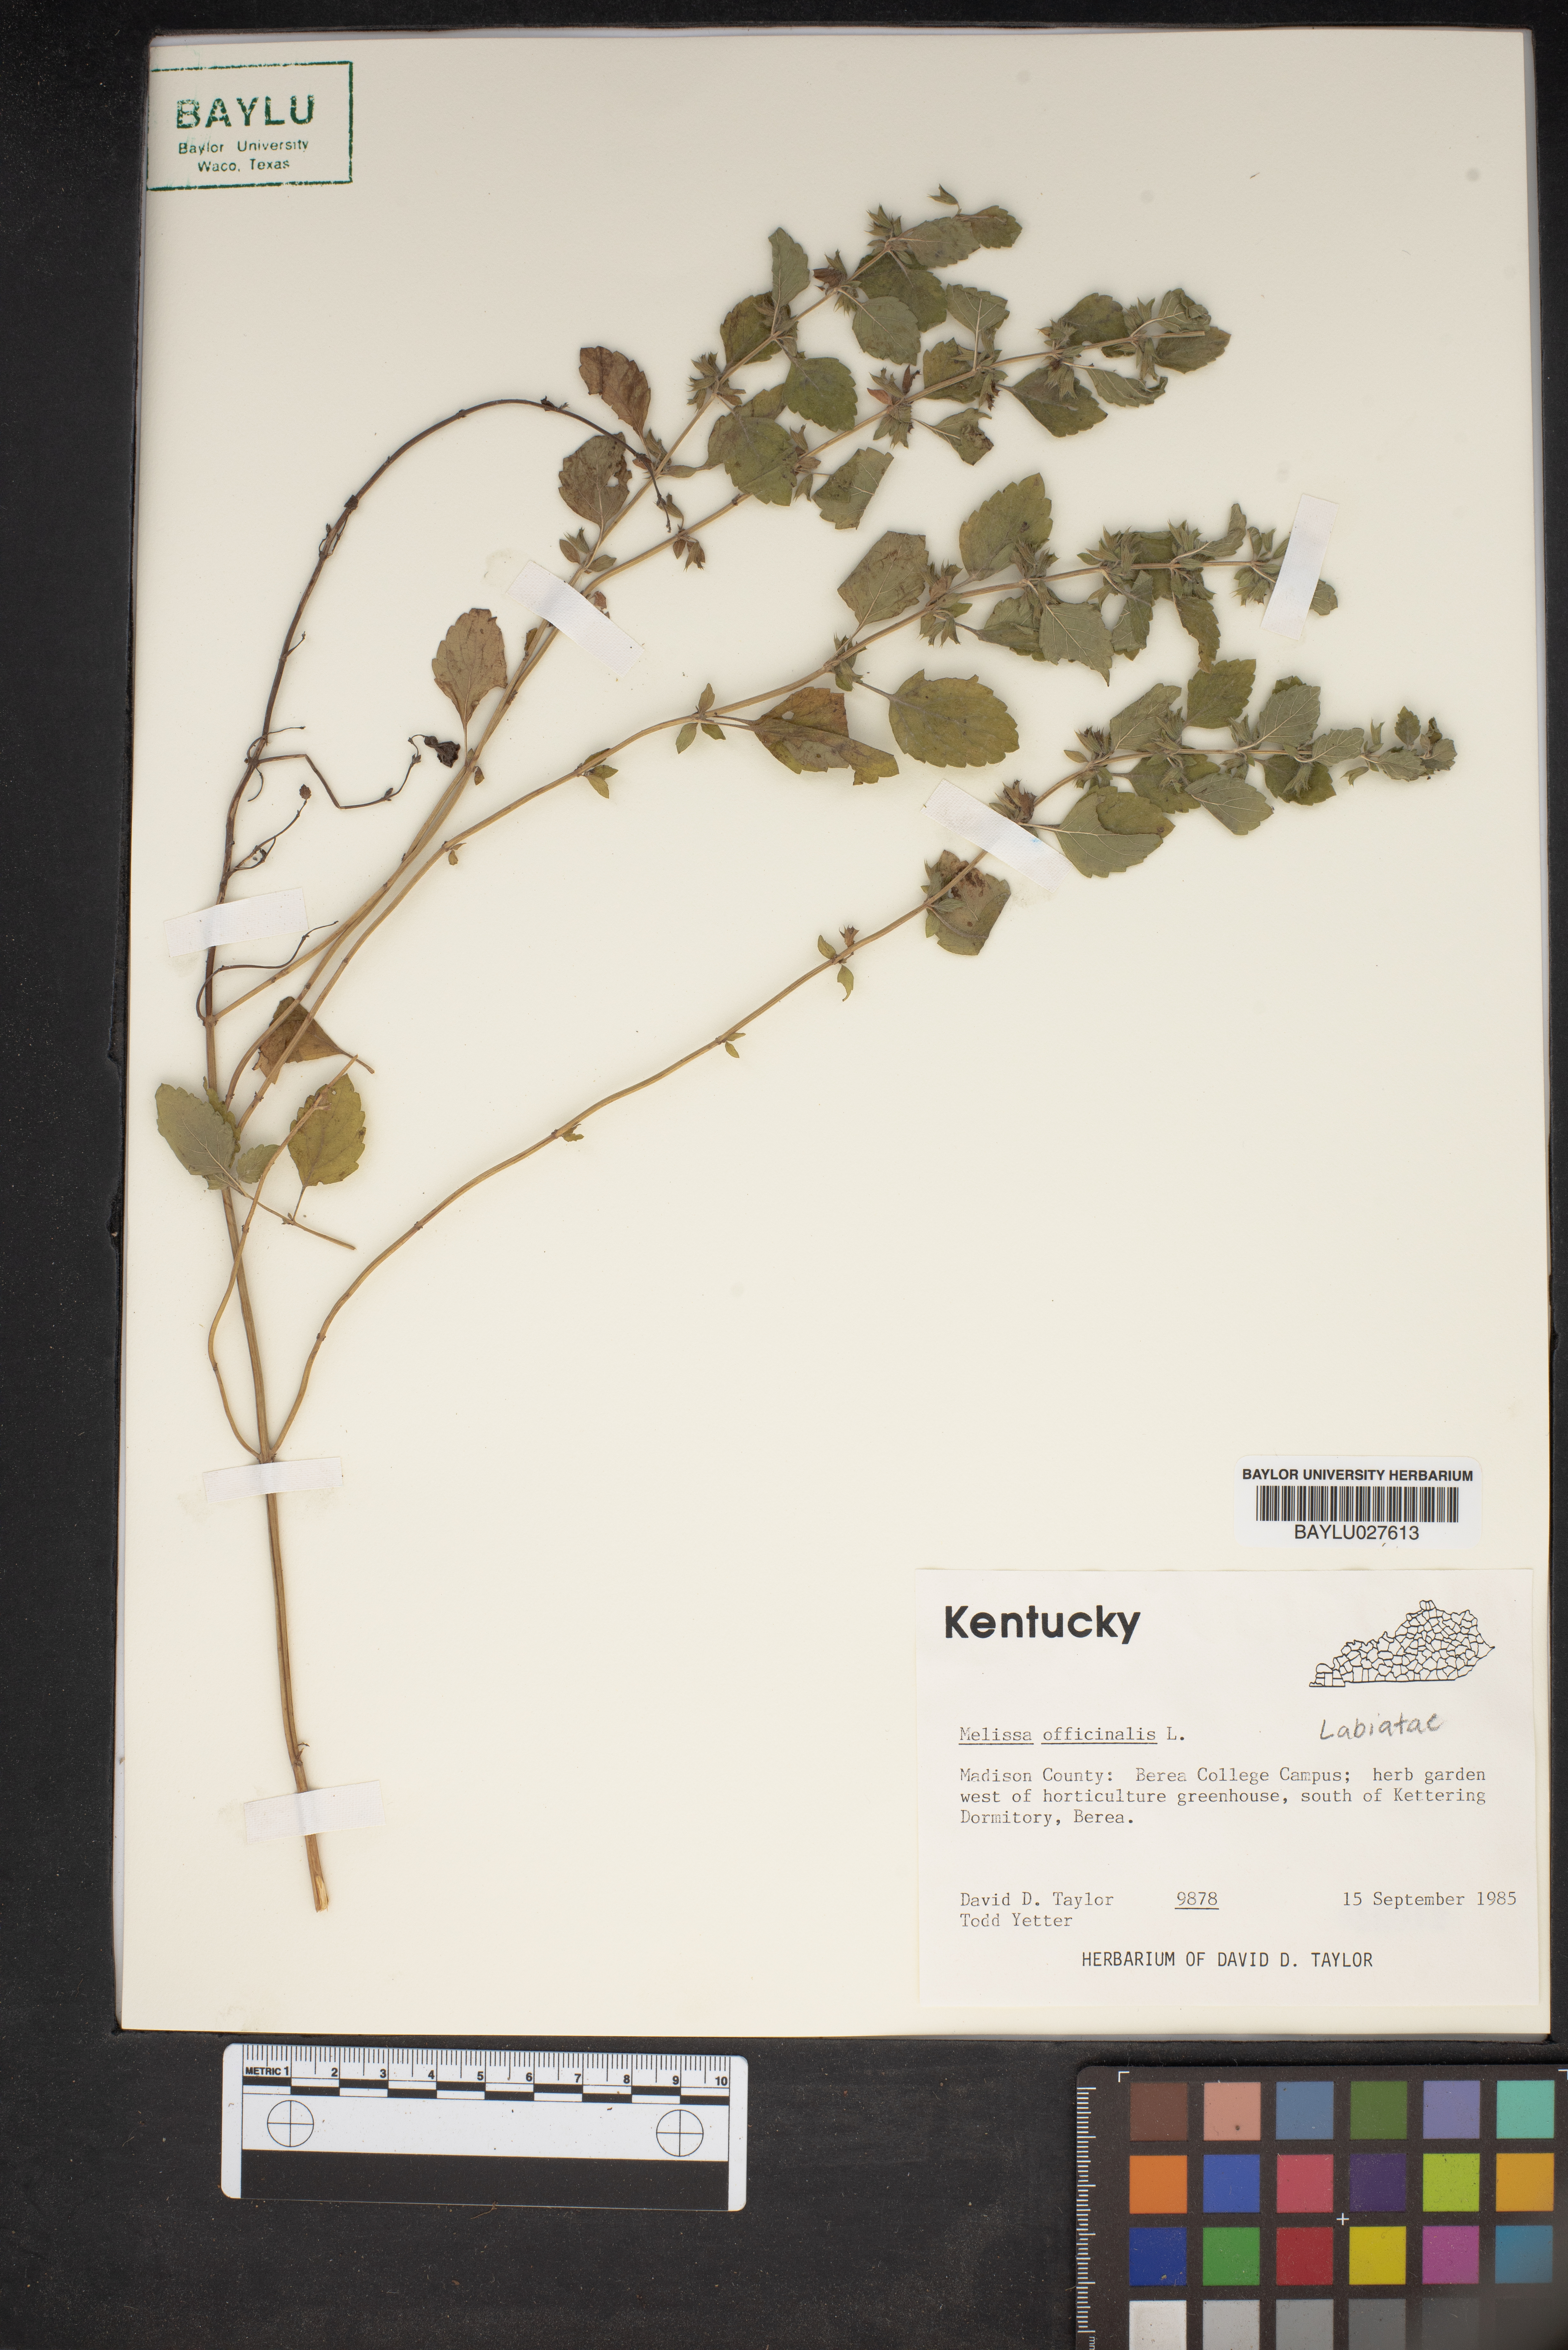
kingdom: Plantae
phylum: Tracheophyta
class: Magnoliopsida
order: Lamiales
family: Lamiaceae
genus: Melissa
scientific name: Melissa officinalis
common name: Balm
